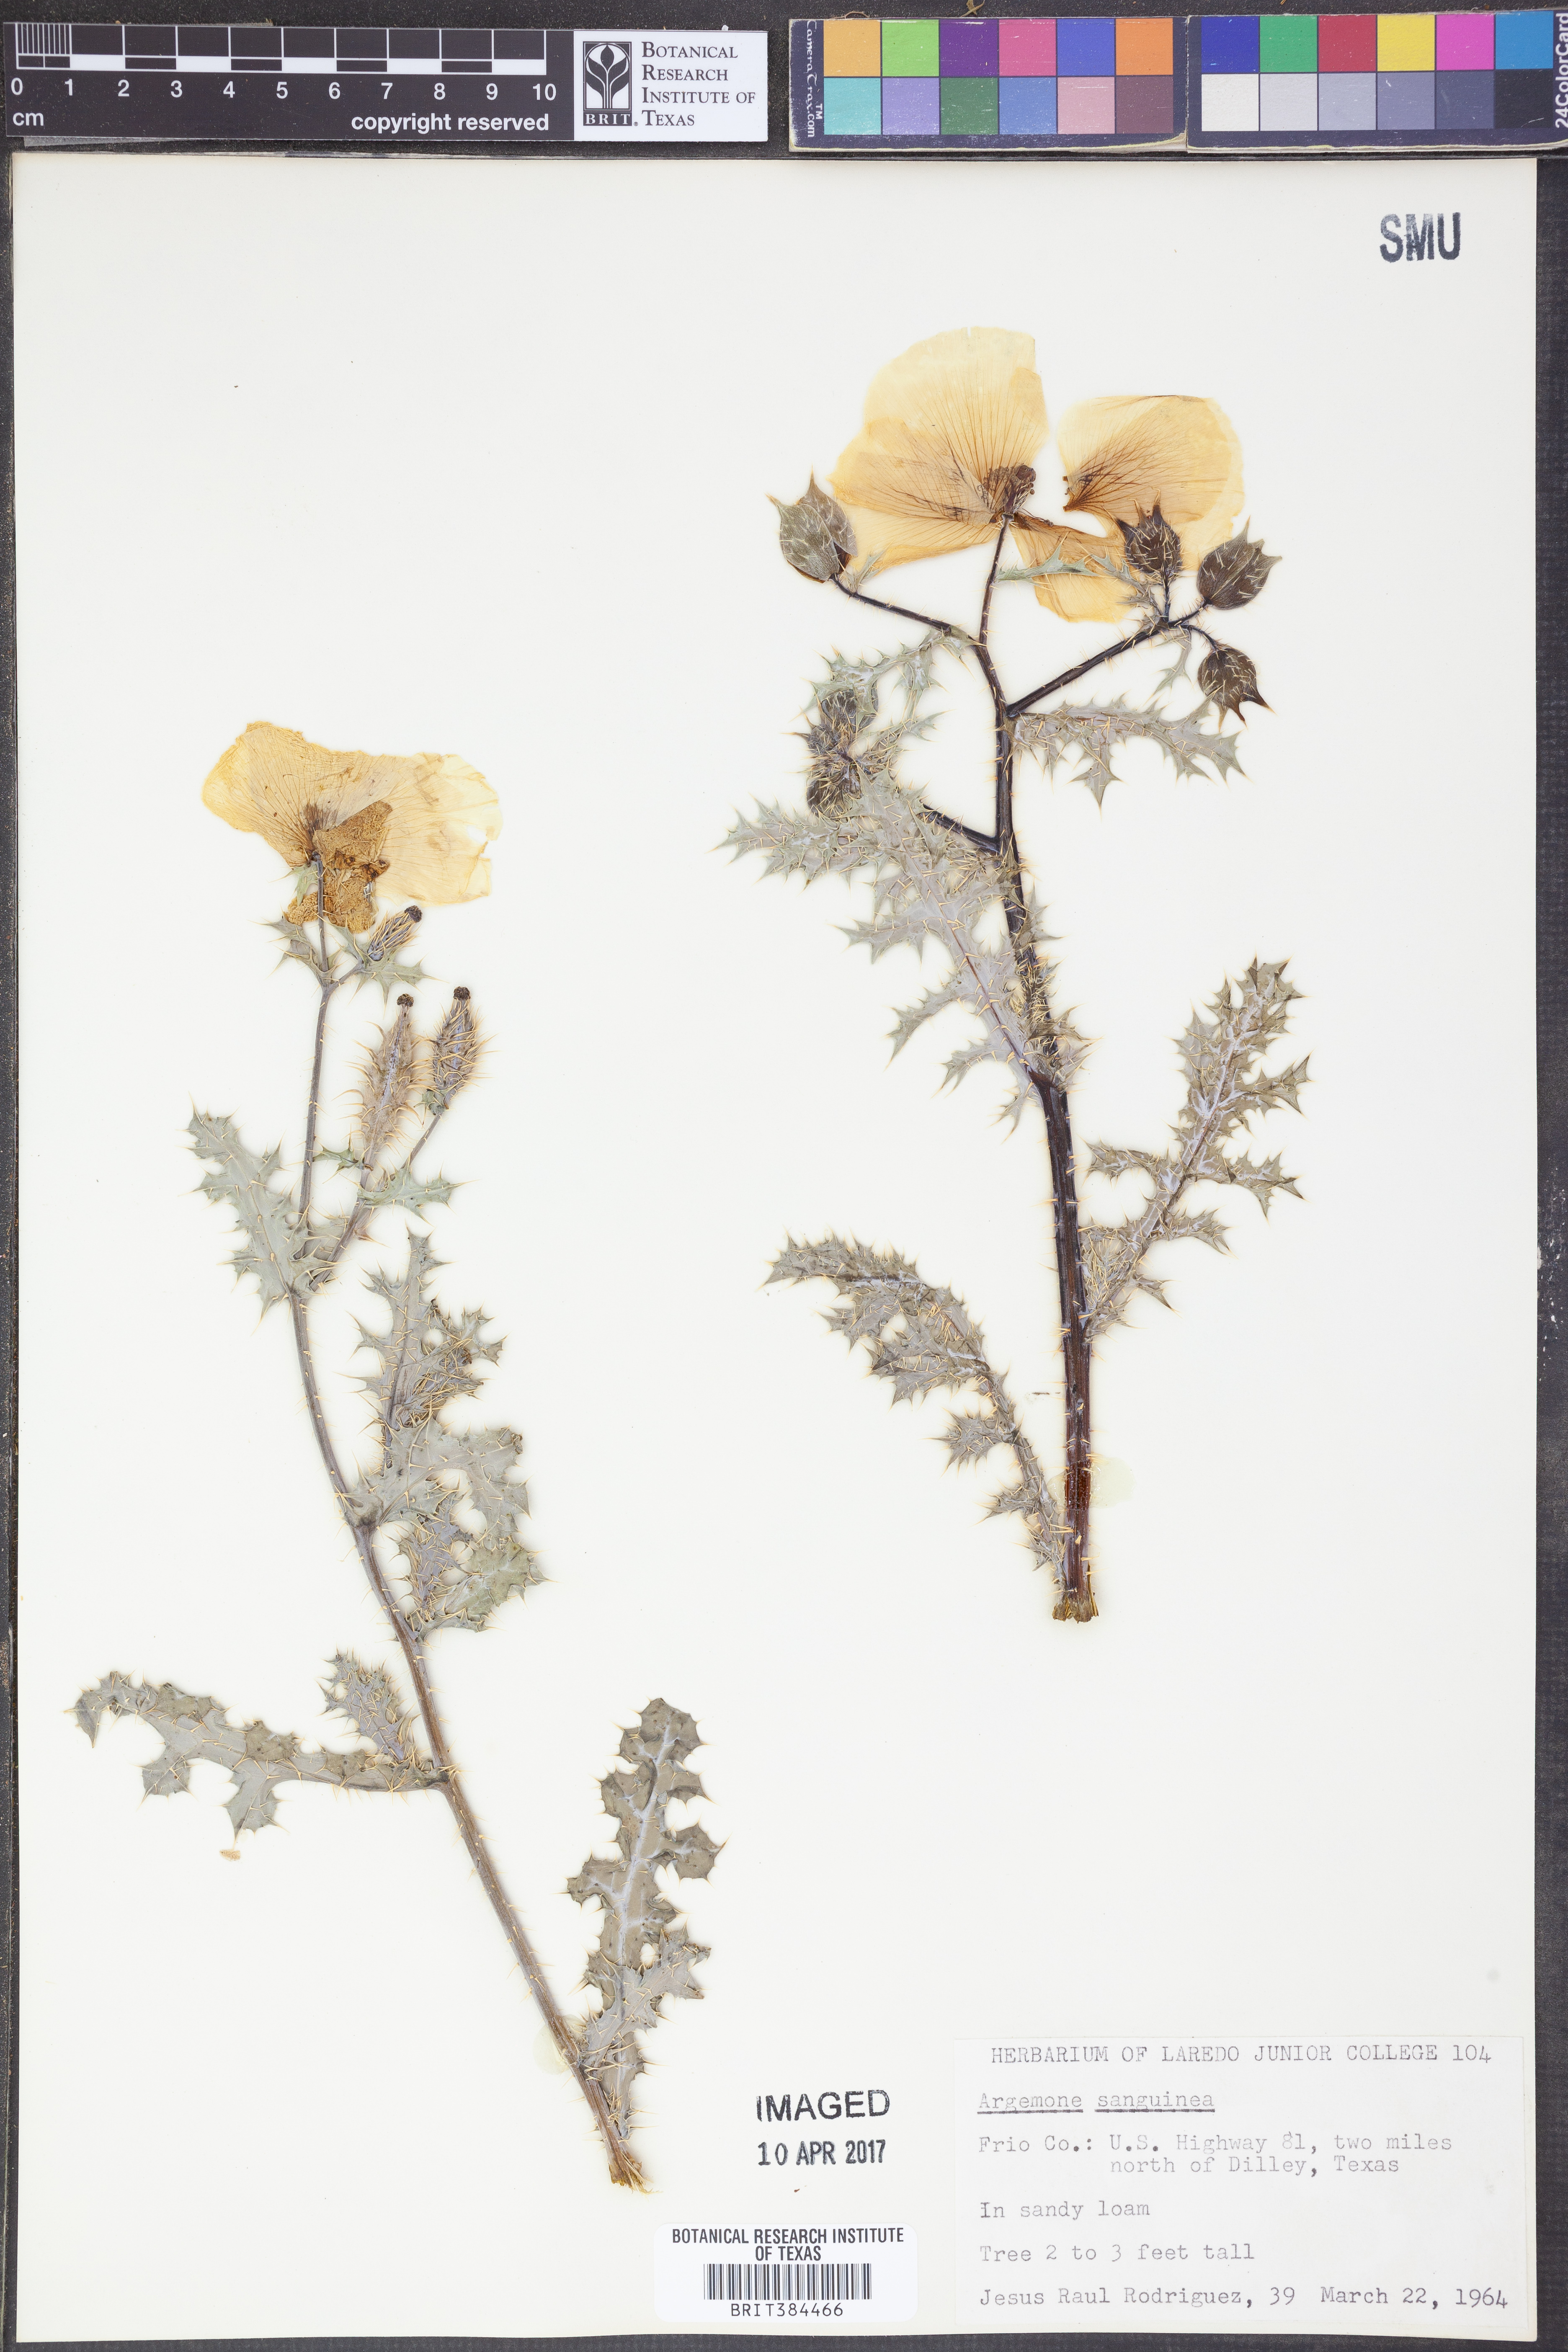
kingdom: Plantae
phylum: Tracheophyta
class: Magnoliopsida
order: Ranunculales
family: Papaveraceae
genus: Argemone
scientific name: Argemone sanguinea
